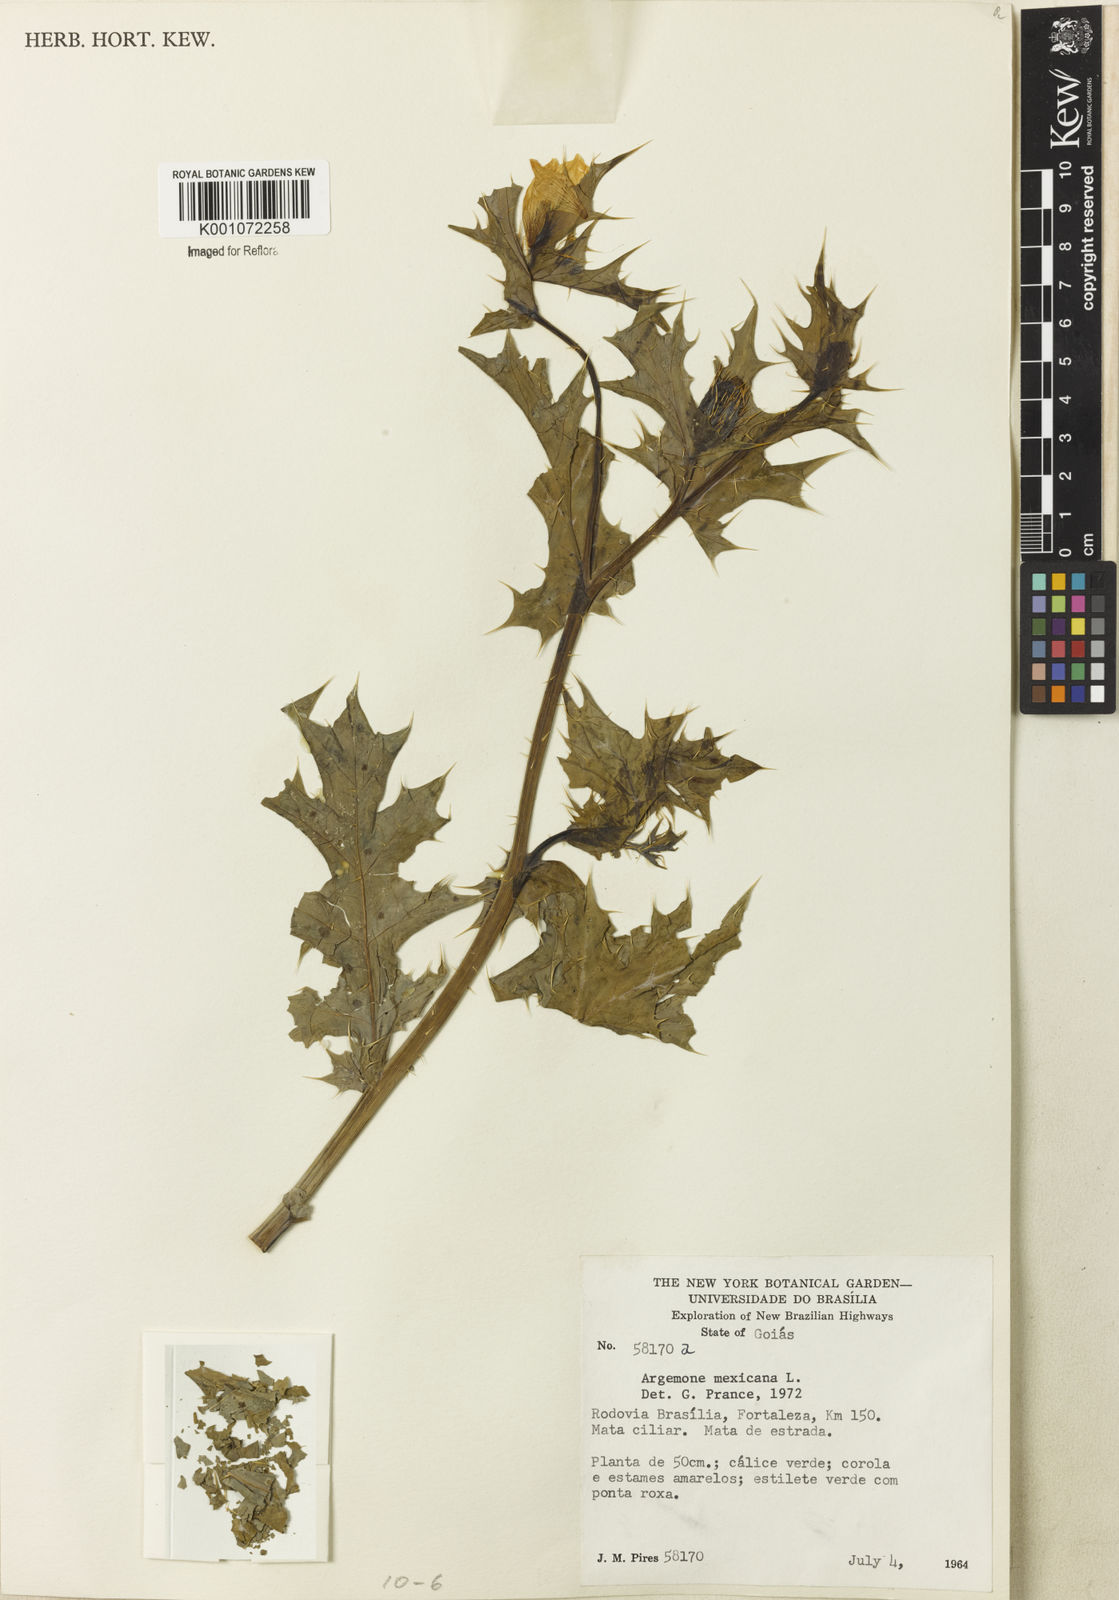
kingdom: Plantae
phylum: Tracheophyta
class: Magnoliopsida
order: Ranunculales
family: Papaveraceae
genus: Argemone
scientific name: Argemone mexicana
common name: Mexican poppy
